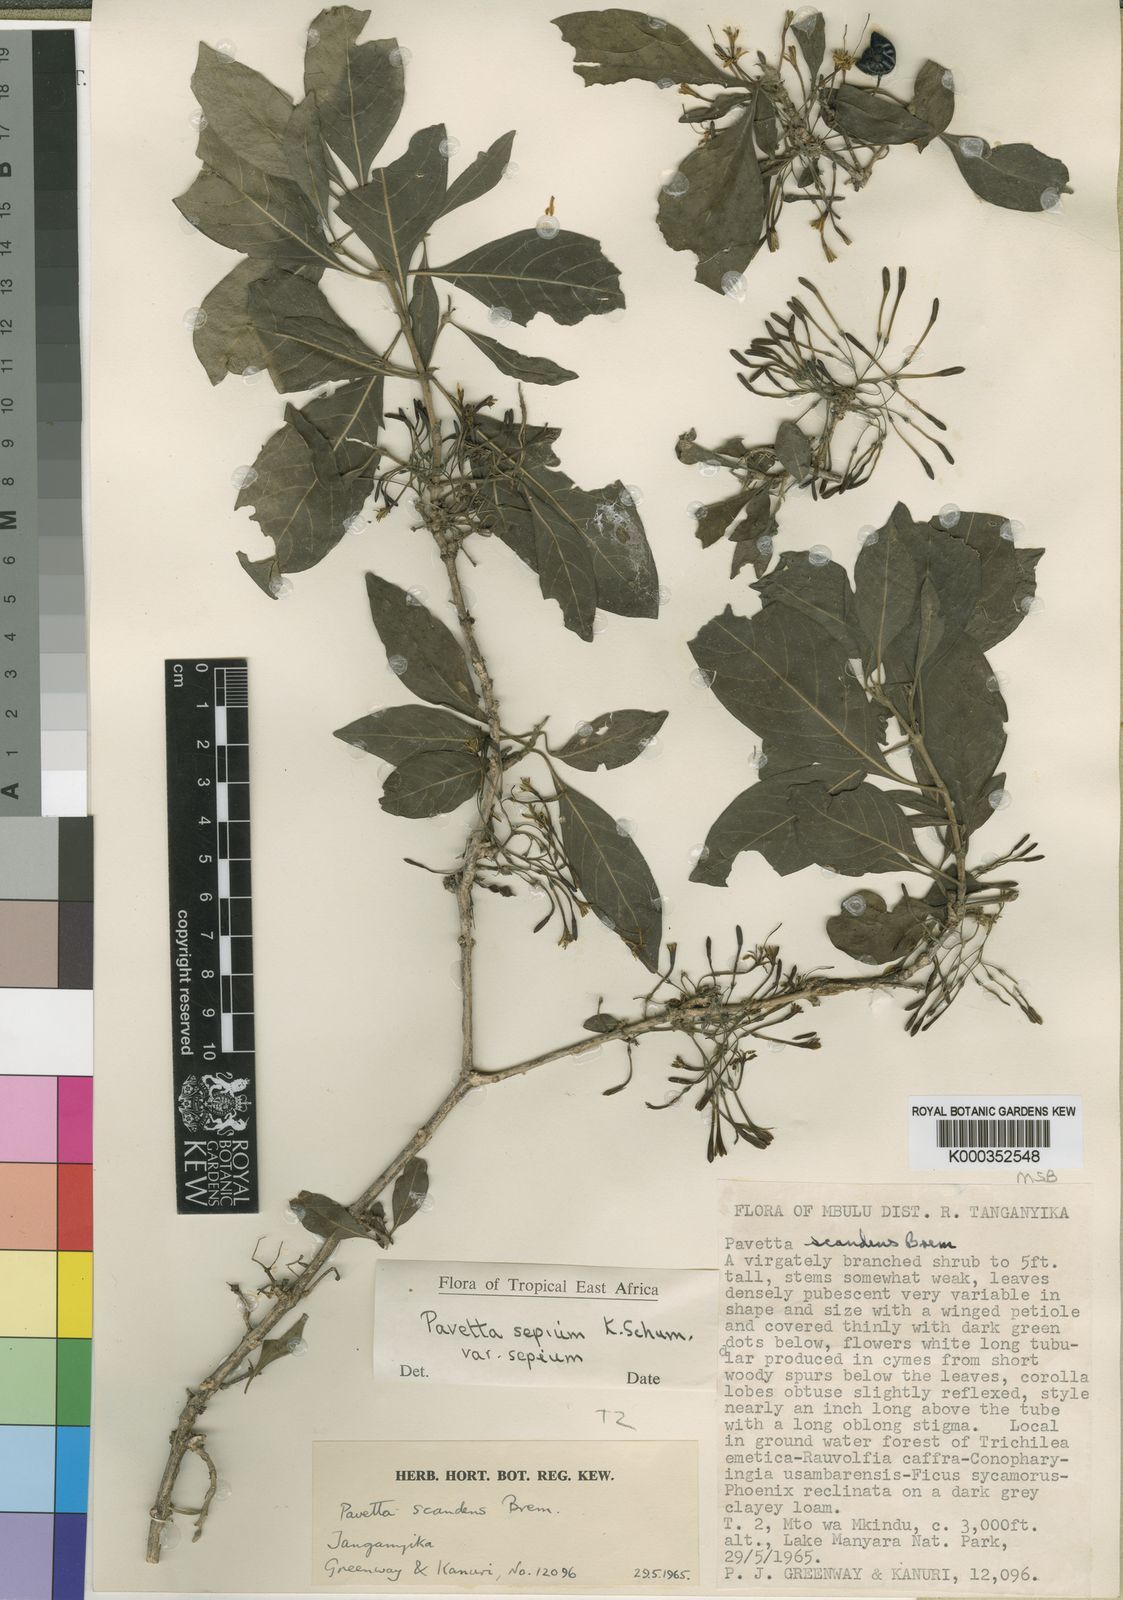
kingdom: Plantae
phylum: Tracheophyta
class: Magnoliopsida
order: Gentianales
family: Rubiaceae
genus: Pavetta
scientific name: Pavetta sepium
